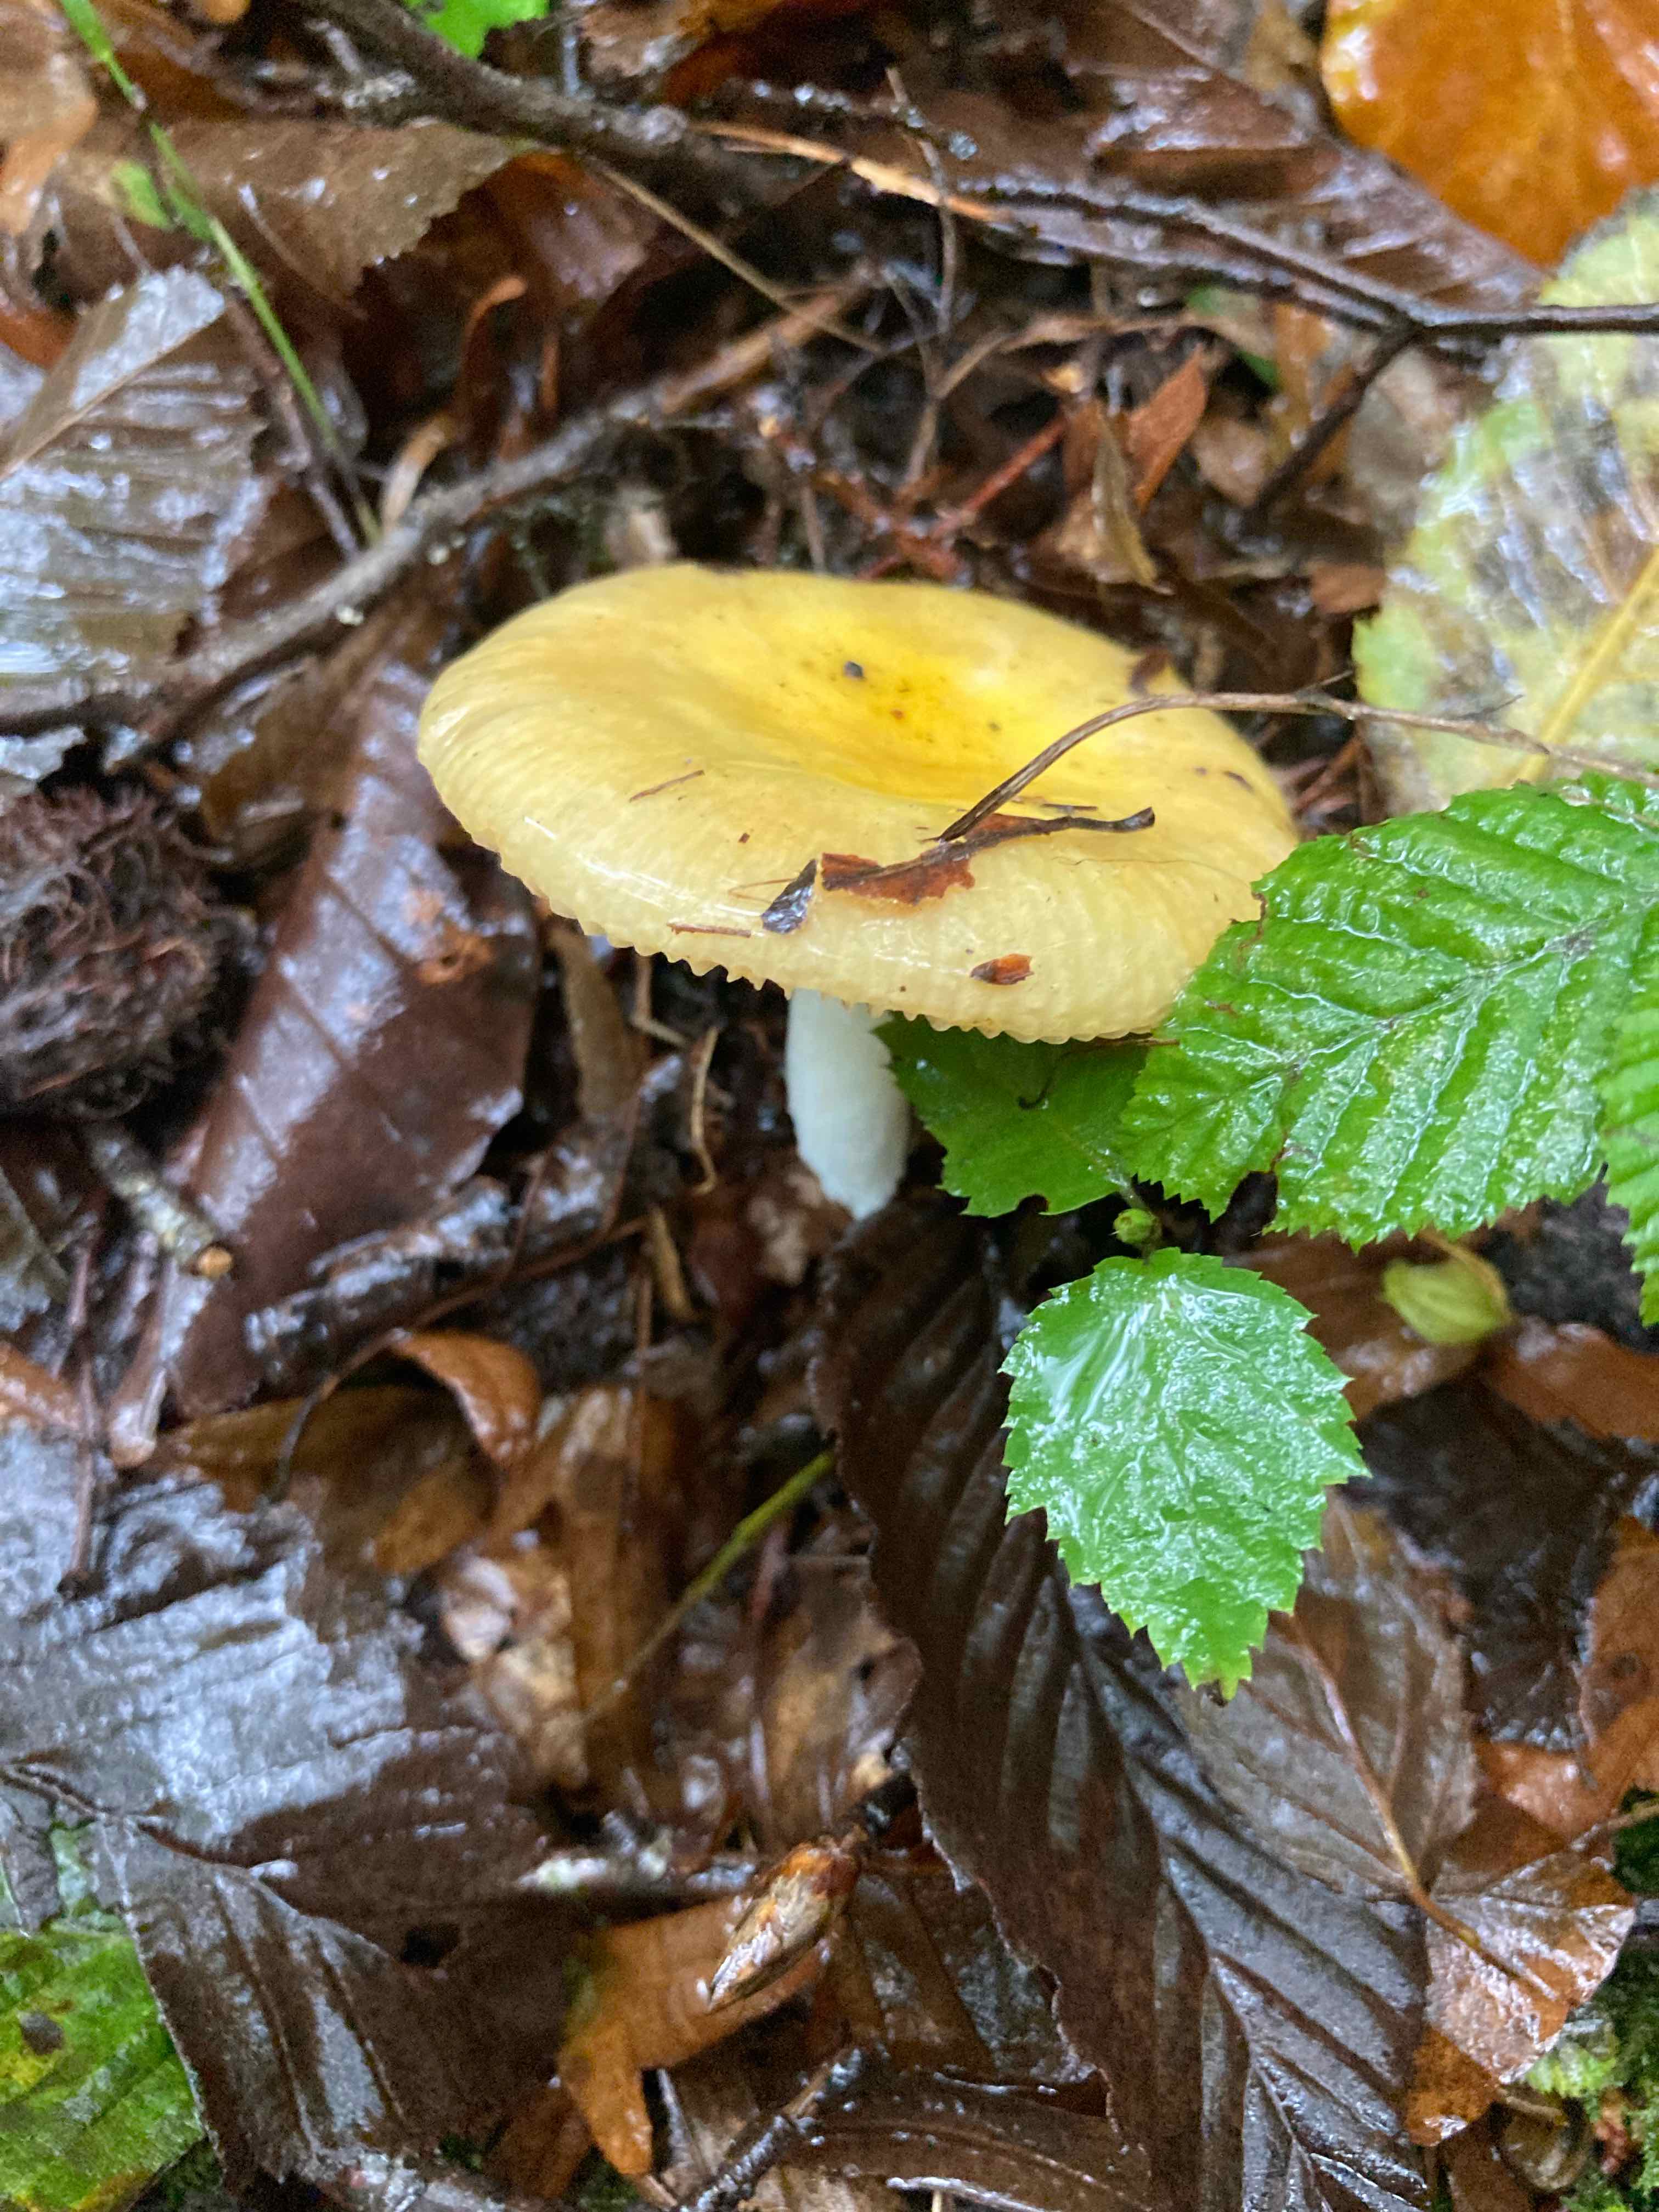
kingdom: Fungi
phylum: Basidiomycota
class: Agaricomycetes
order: Russulales
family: Russulaceae
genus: Russula
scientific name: Russula risigallina
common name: abrikos-skørhat
